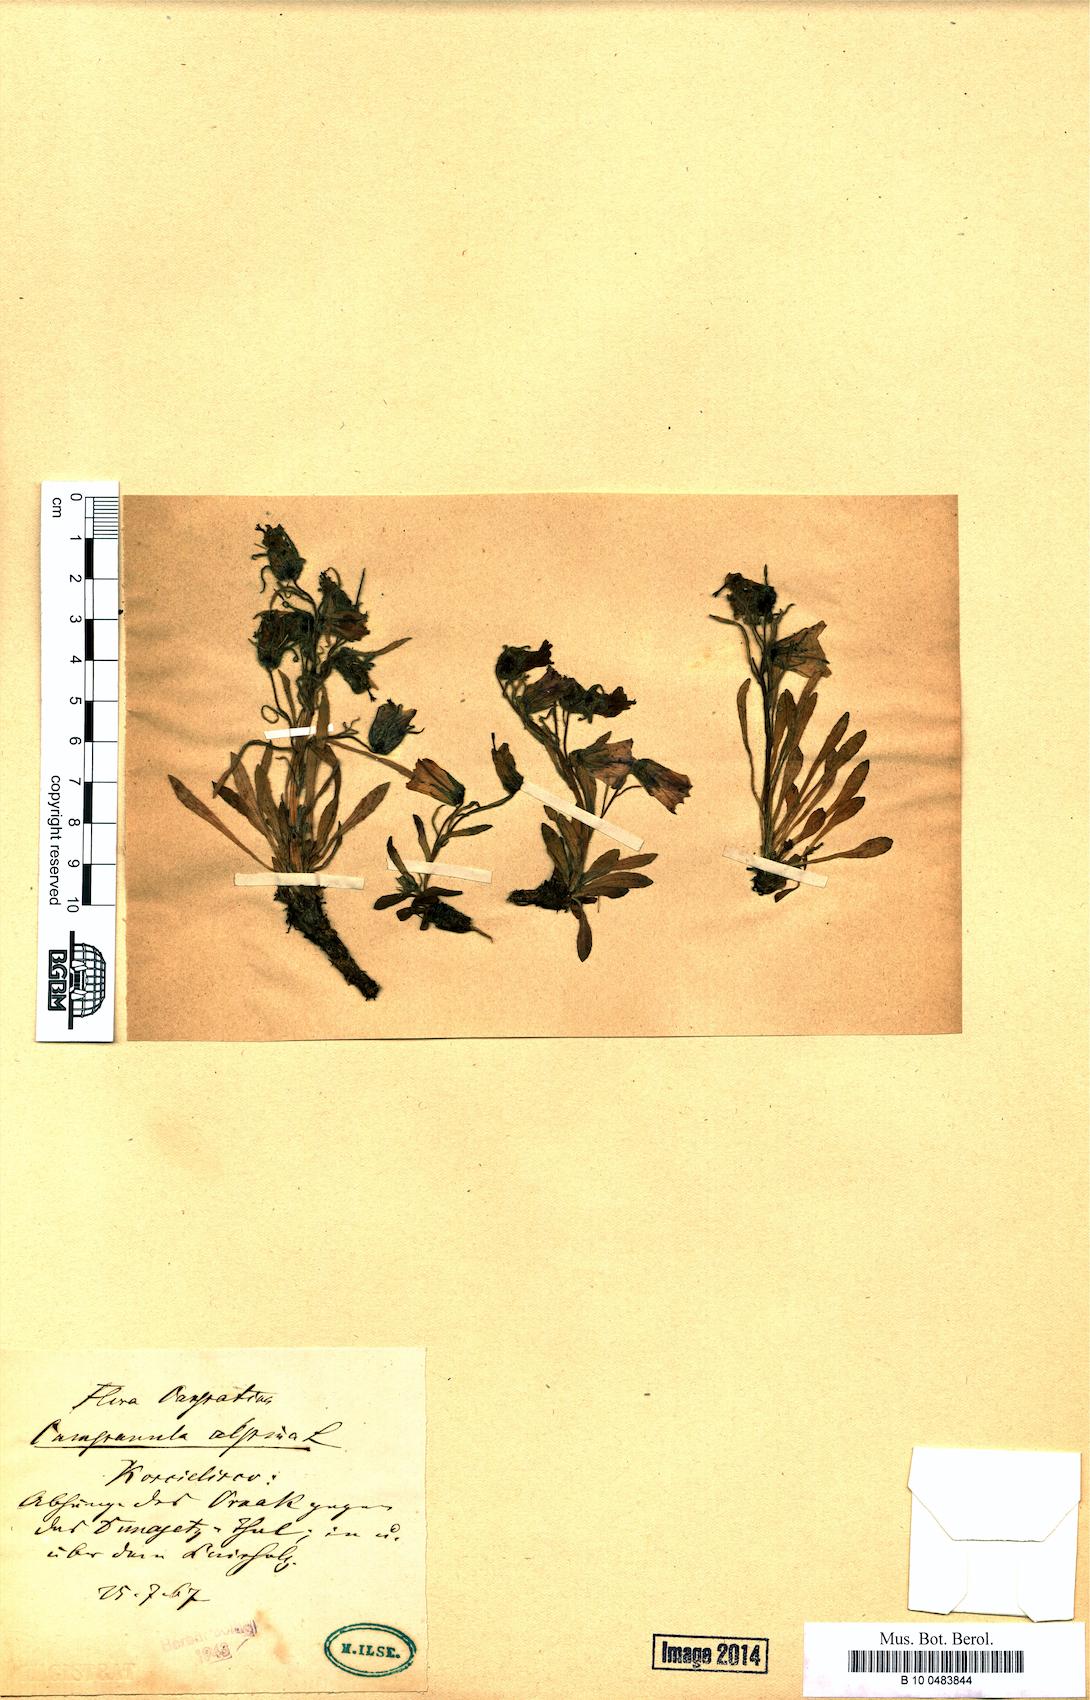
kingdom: Plantae
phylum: Tracheophyta
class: Magnoliopsida
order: Asterales
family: Campanulaceae
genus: Campanula
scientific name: Campanula alpina
